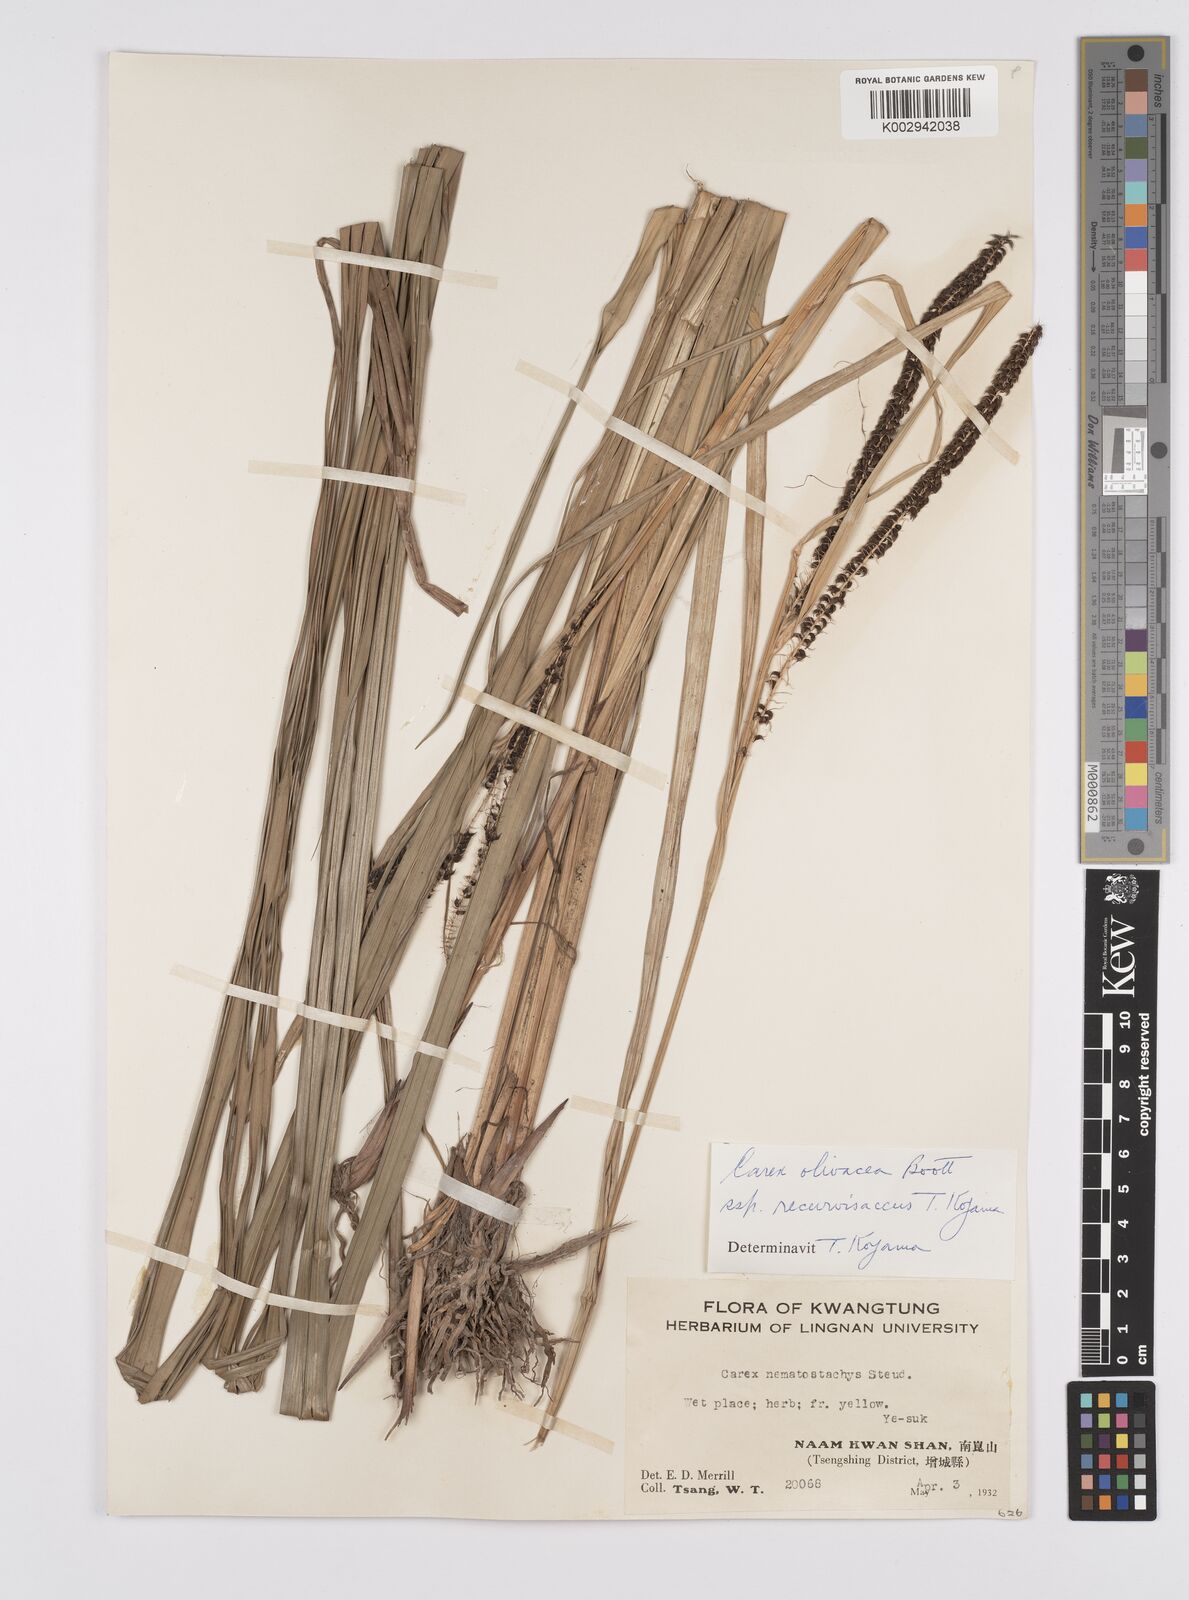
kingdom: Plantae
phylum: Tracheophyta
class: Liliopsida
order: Poales
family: Cyperaceae
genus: Carex
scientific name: Carex olivacea
